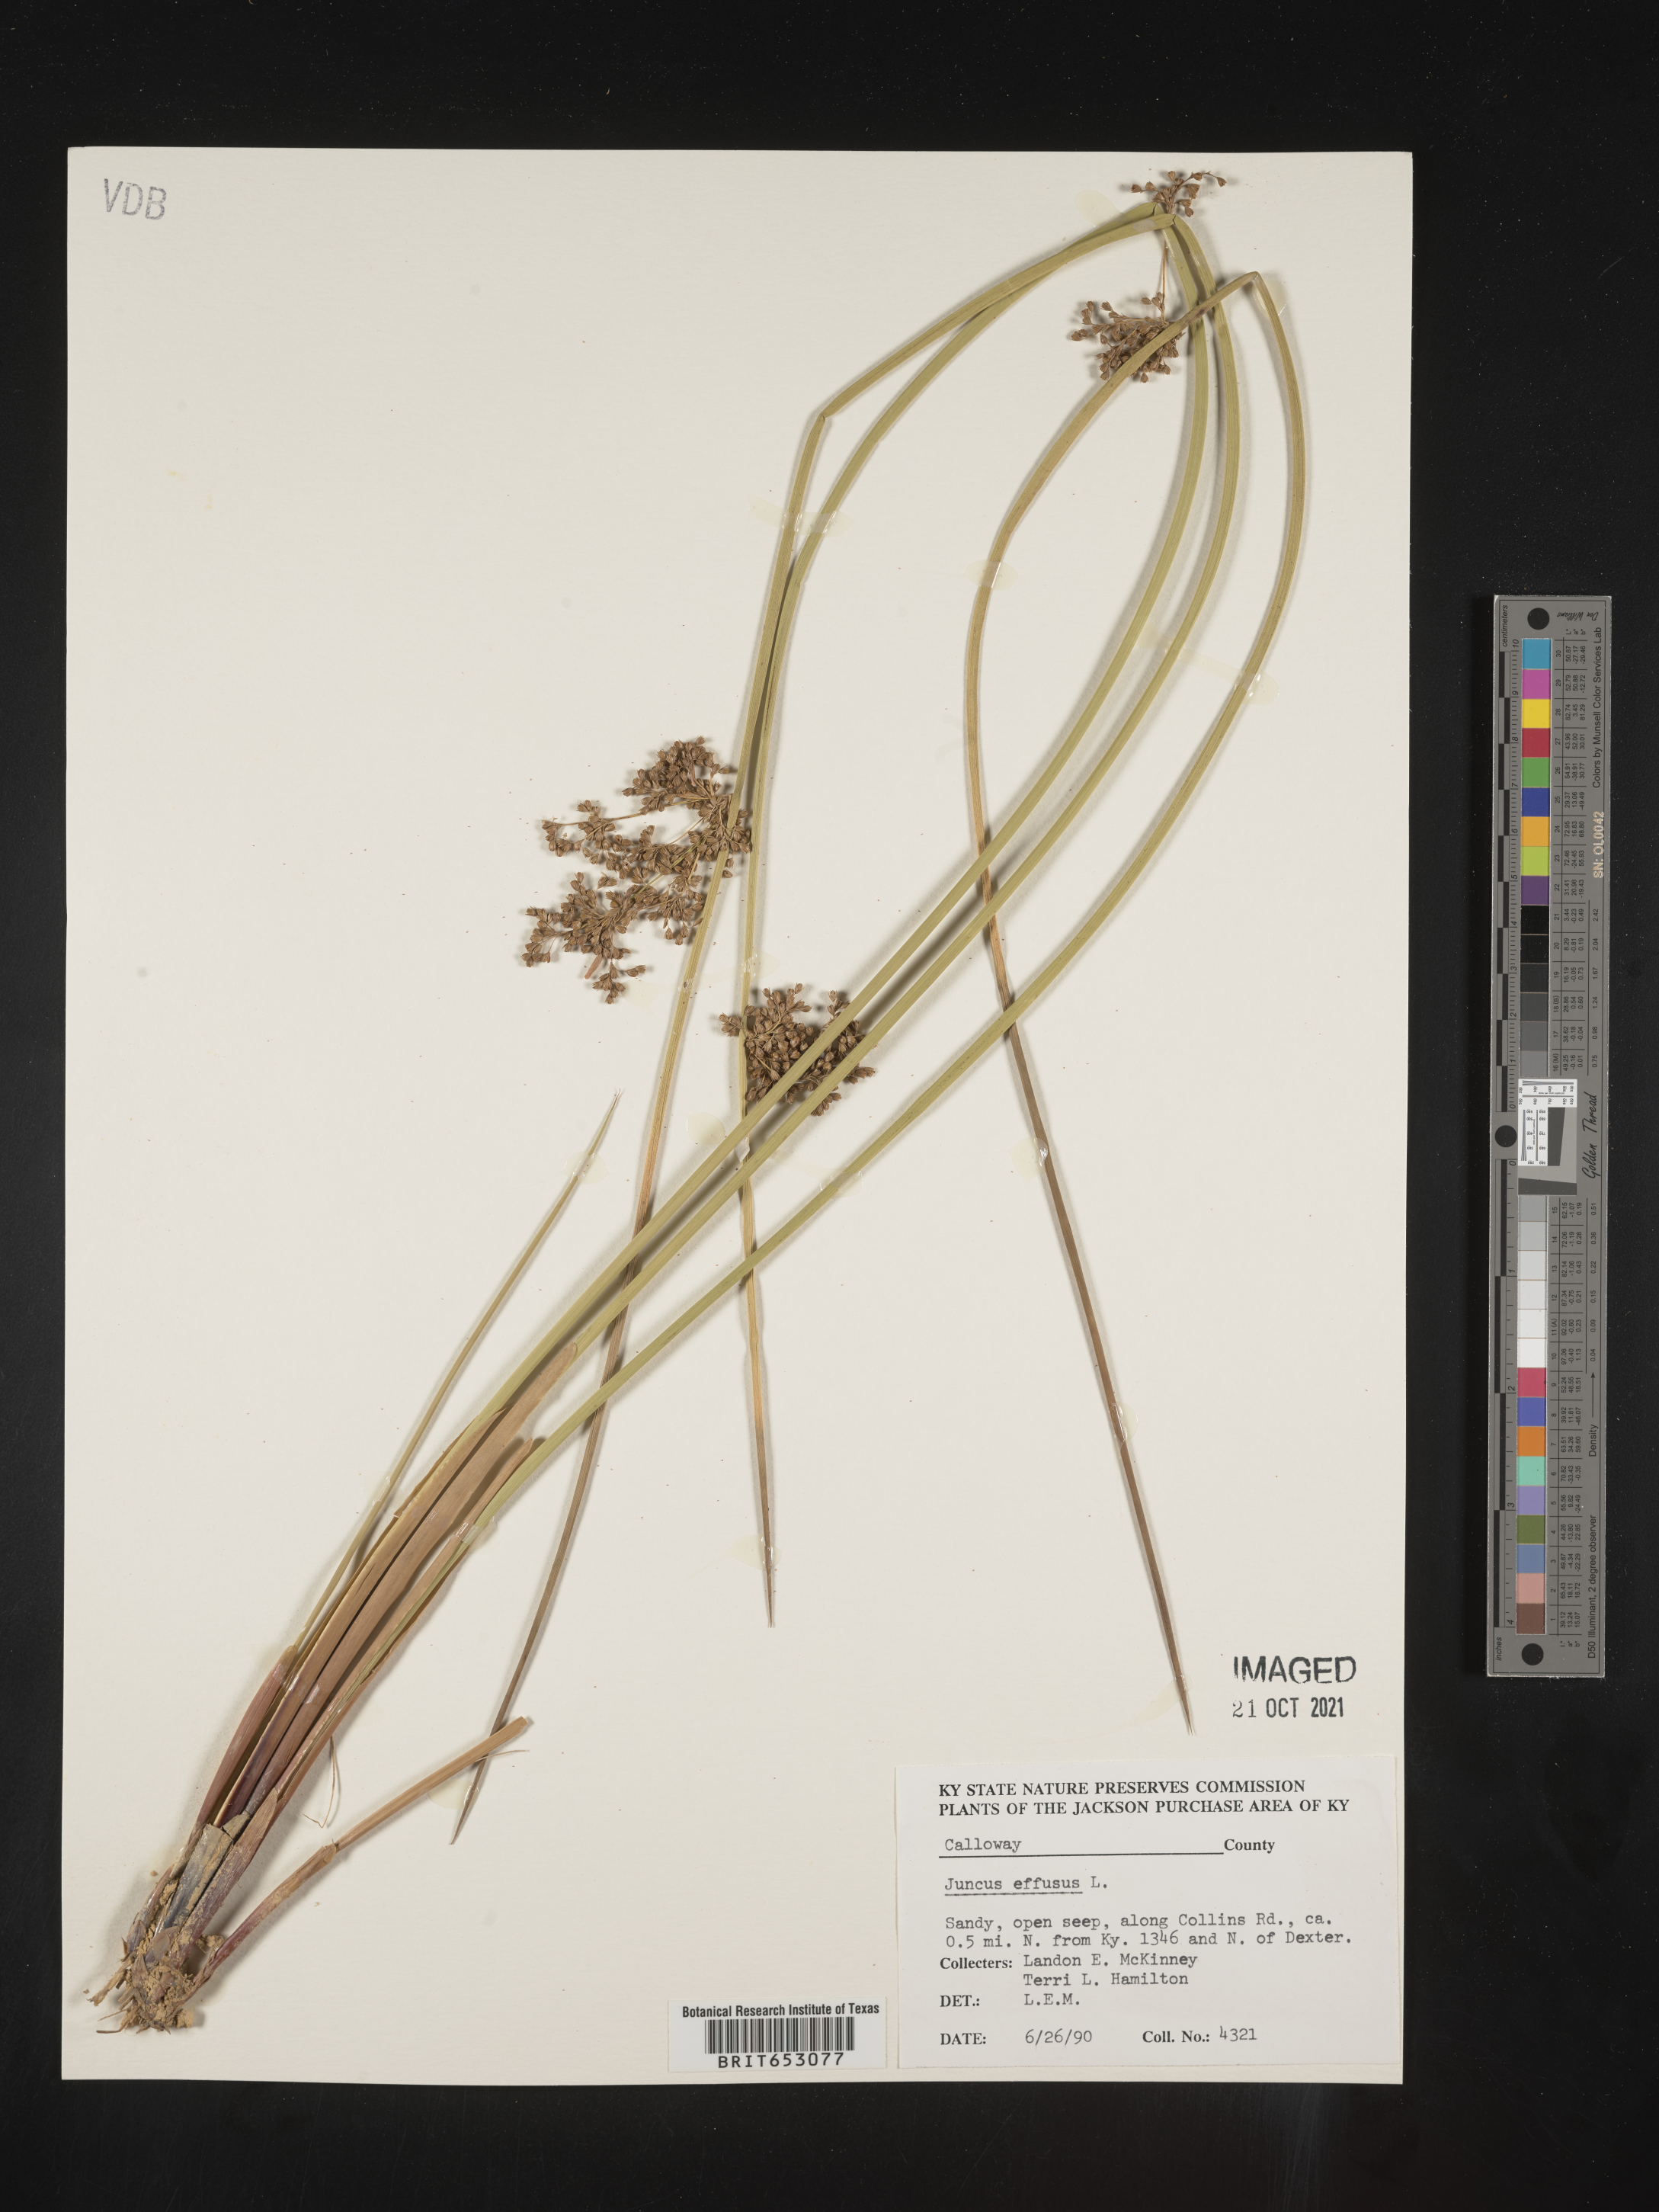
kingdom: Plantae
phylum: Tracheophyta
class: Liliopsida
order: Poales
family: Juncaceae
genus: Juncus
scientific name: Juncus effusus
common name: Soft rush
